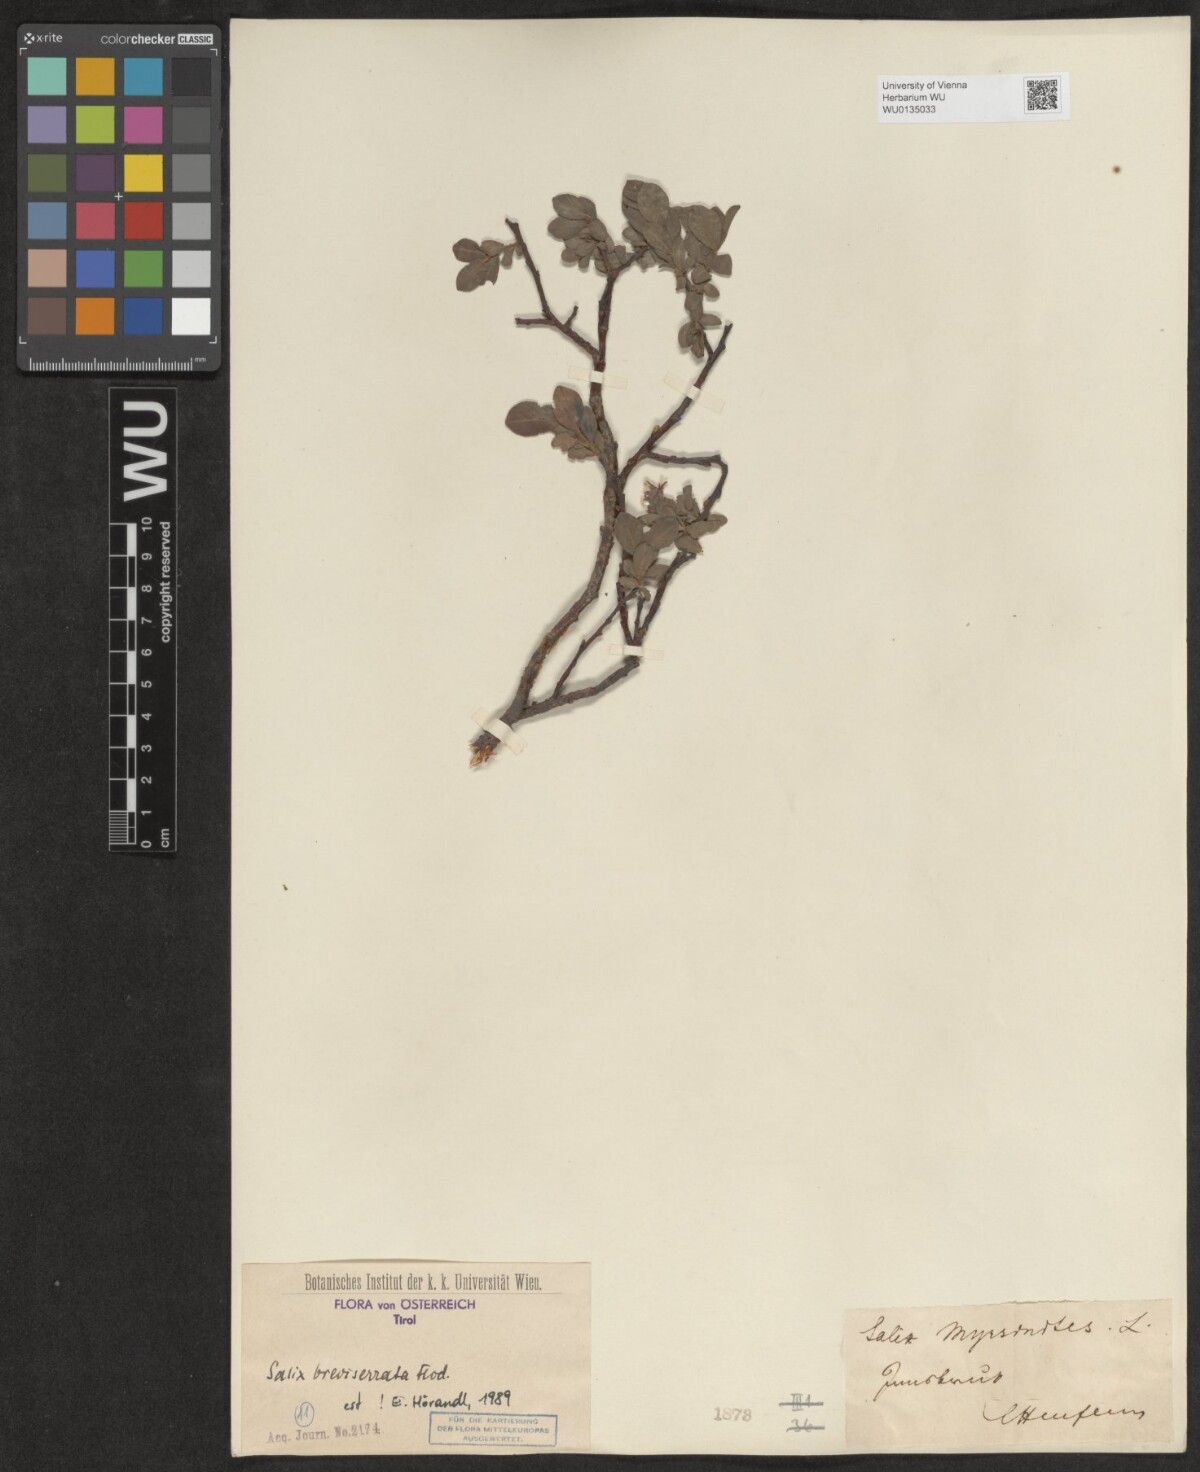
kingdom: Plantae
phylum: Tracheophyta
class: Magnoliopsida
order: Malpighiales
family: Salicaceae
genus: Salix
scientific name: Salix breviserrata
